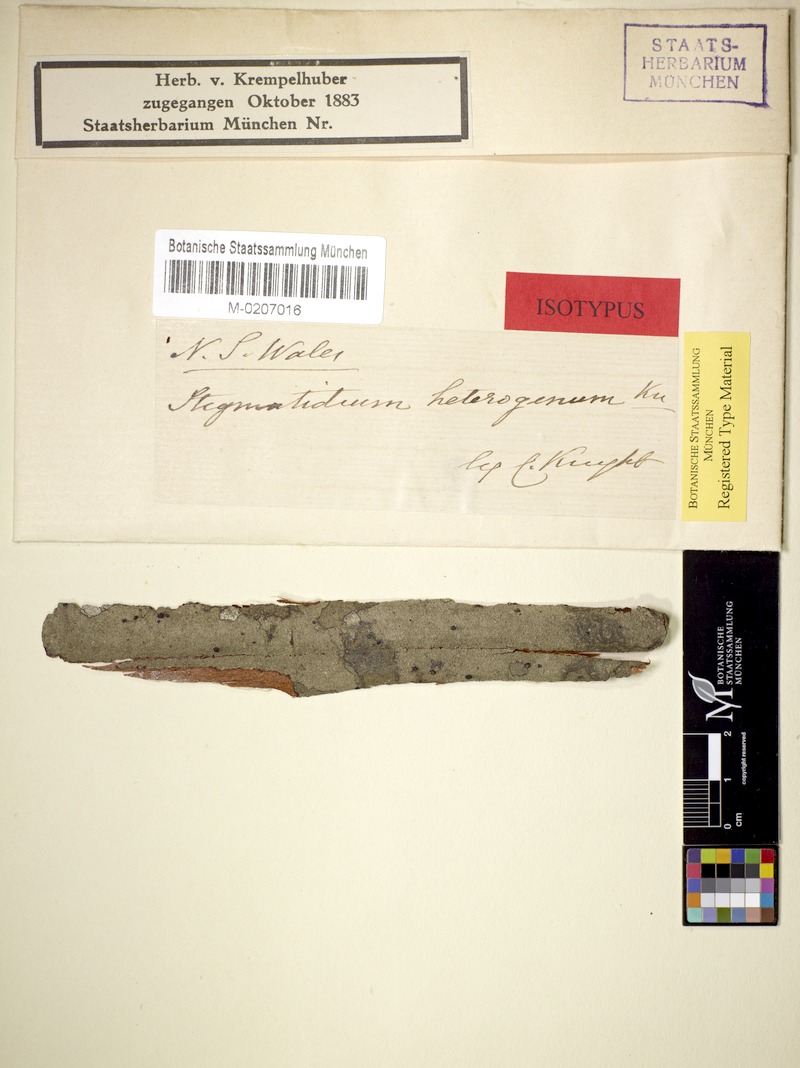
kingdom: Fungi
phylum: Ascomycota
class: Arthoniomycetes
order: Arthoniales
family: Roccellaceae
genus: Chiodecton
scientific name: Chiodecton heterogenum
